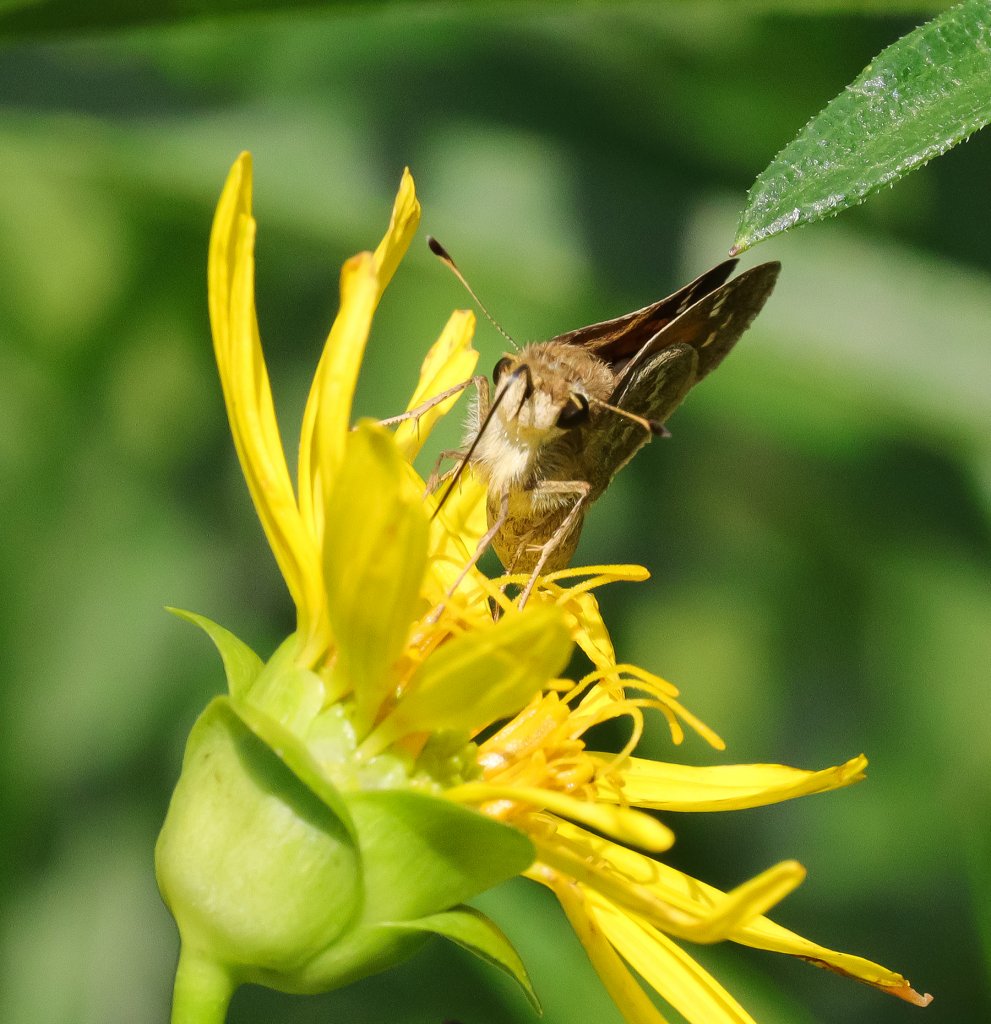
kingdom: Animalia
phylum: Arthropoda
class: Insecta
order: Lepidoptera
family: Hesperiidae
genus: Atalopedes
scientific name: Atalopedes campestris
